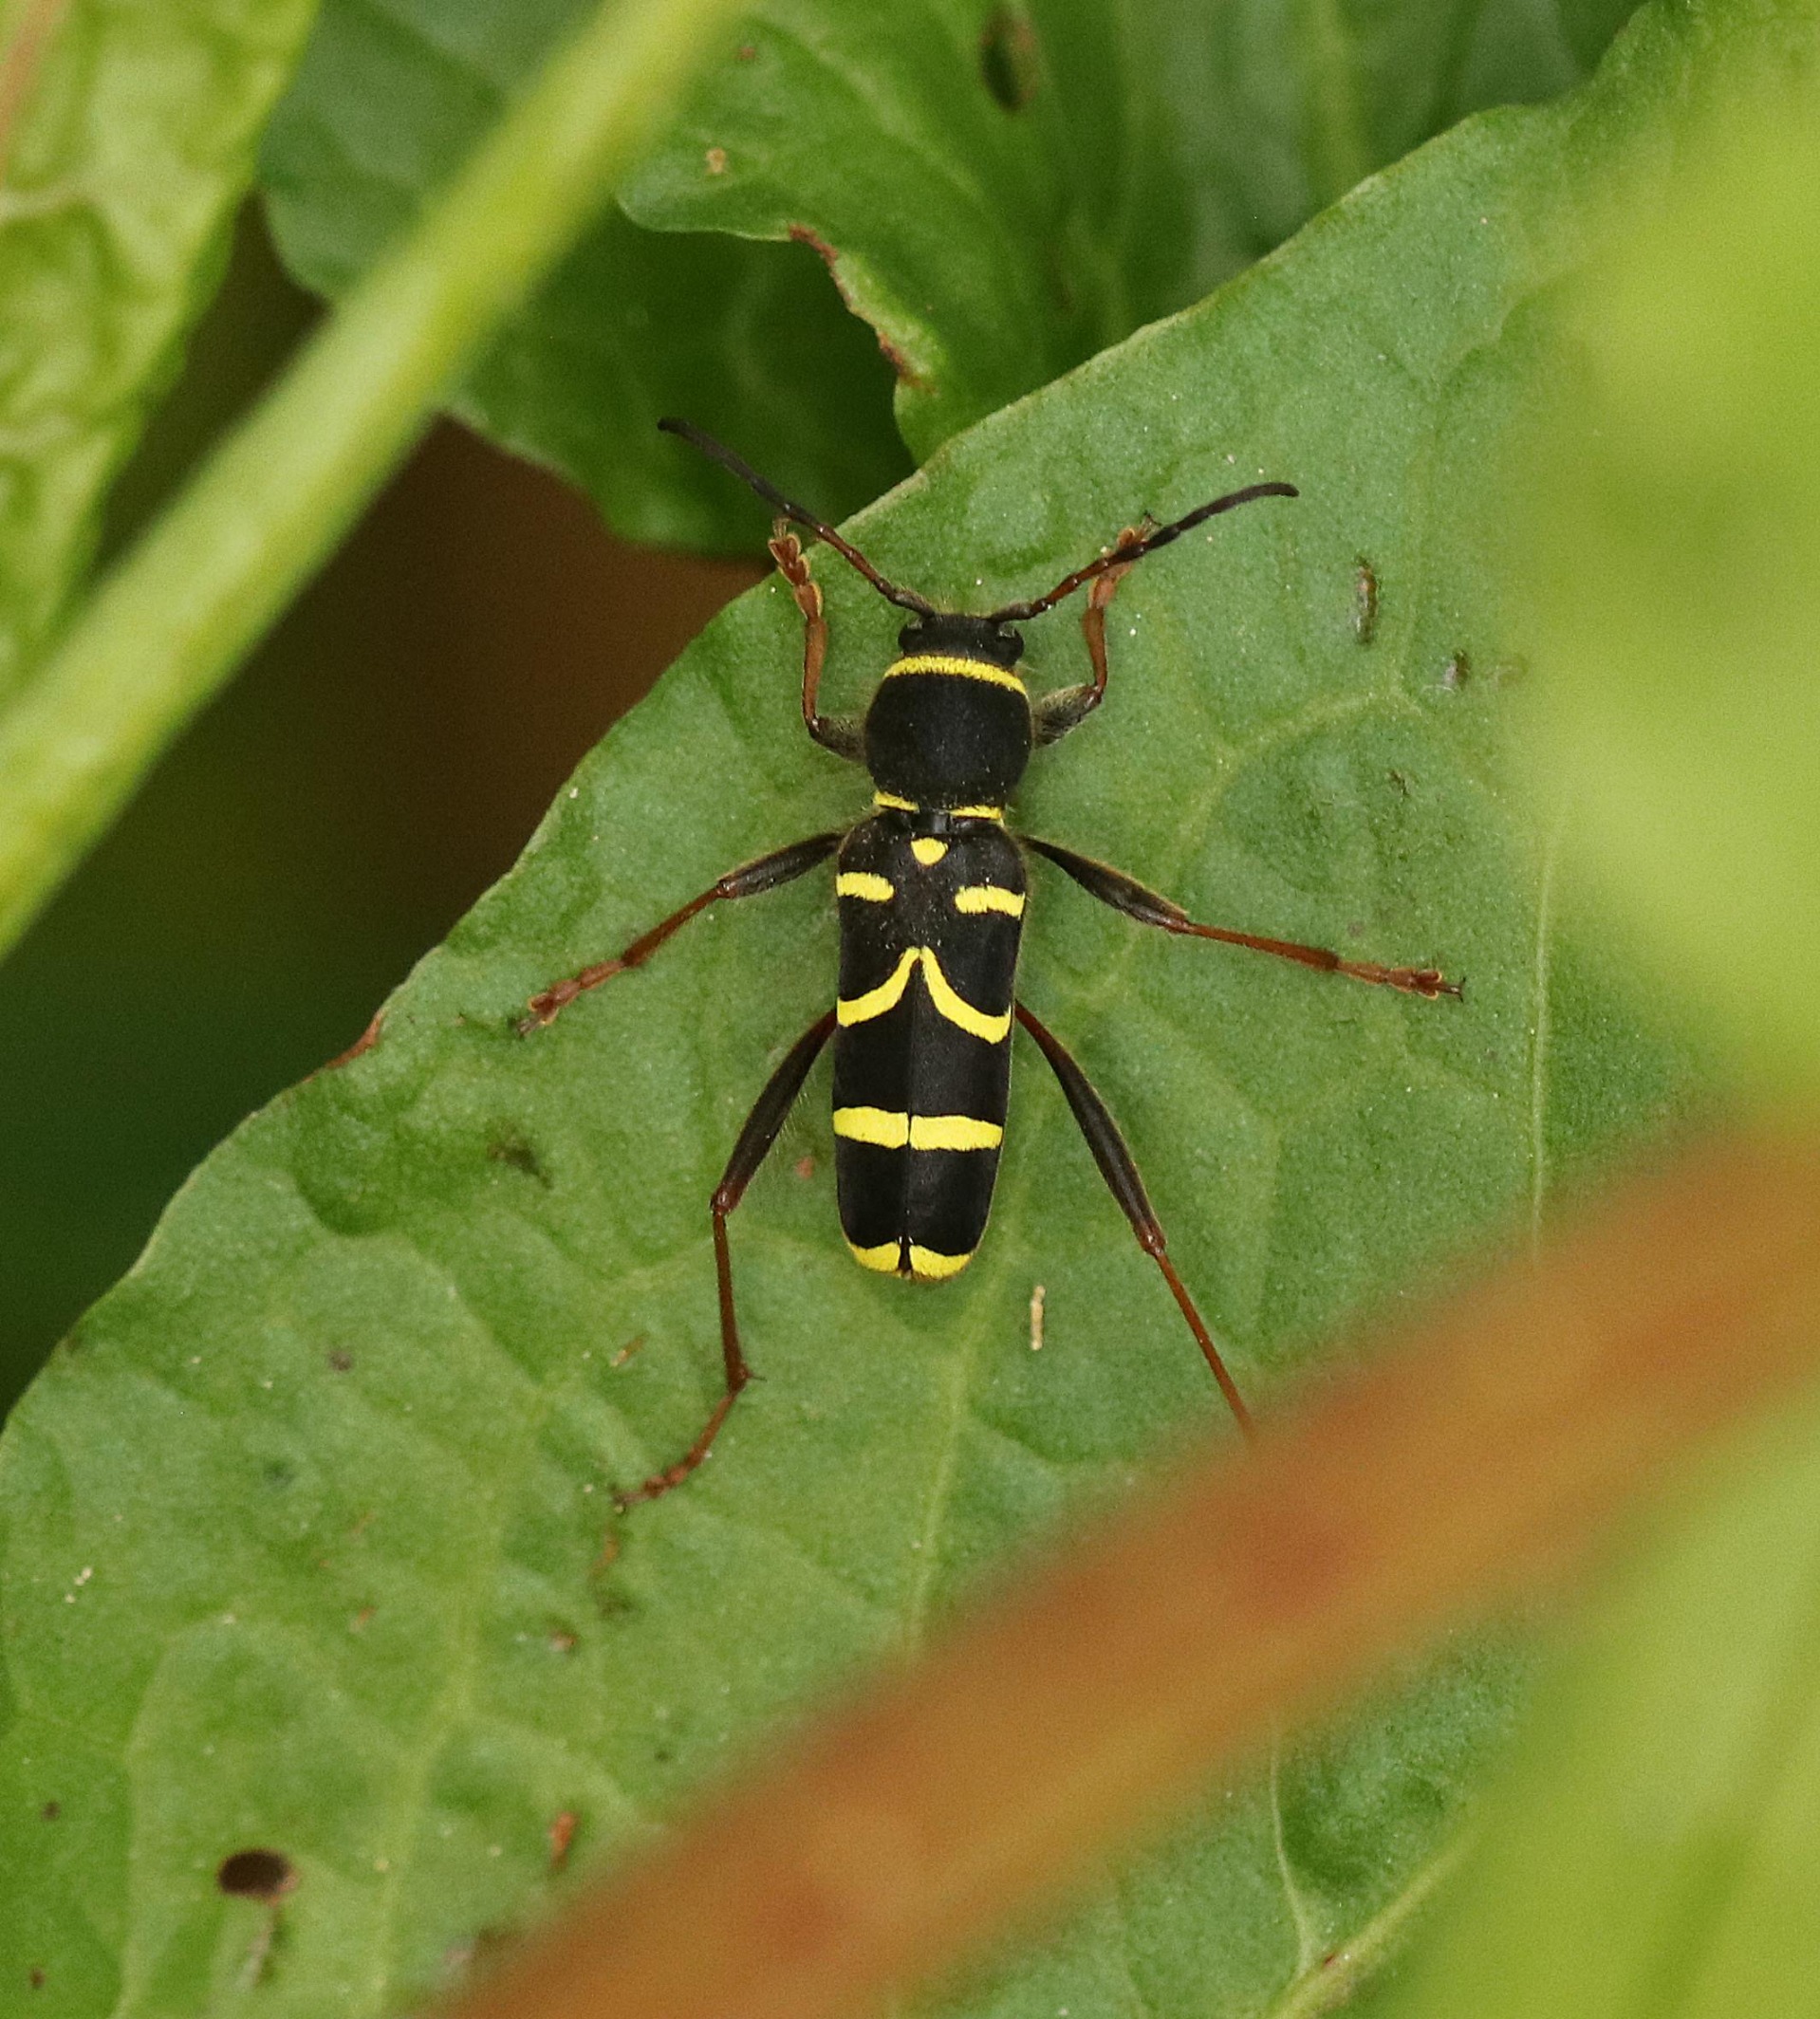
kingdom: Animalia
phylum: Arthropoda
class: Insecta
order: Coleoptera
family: Cerambycidae
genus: Clytus
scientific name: Clytus arietis
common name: Lille hvepsebuk
